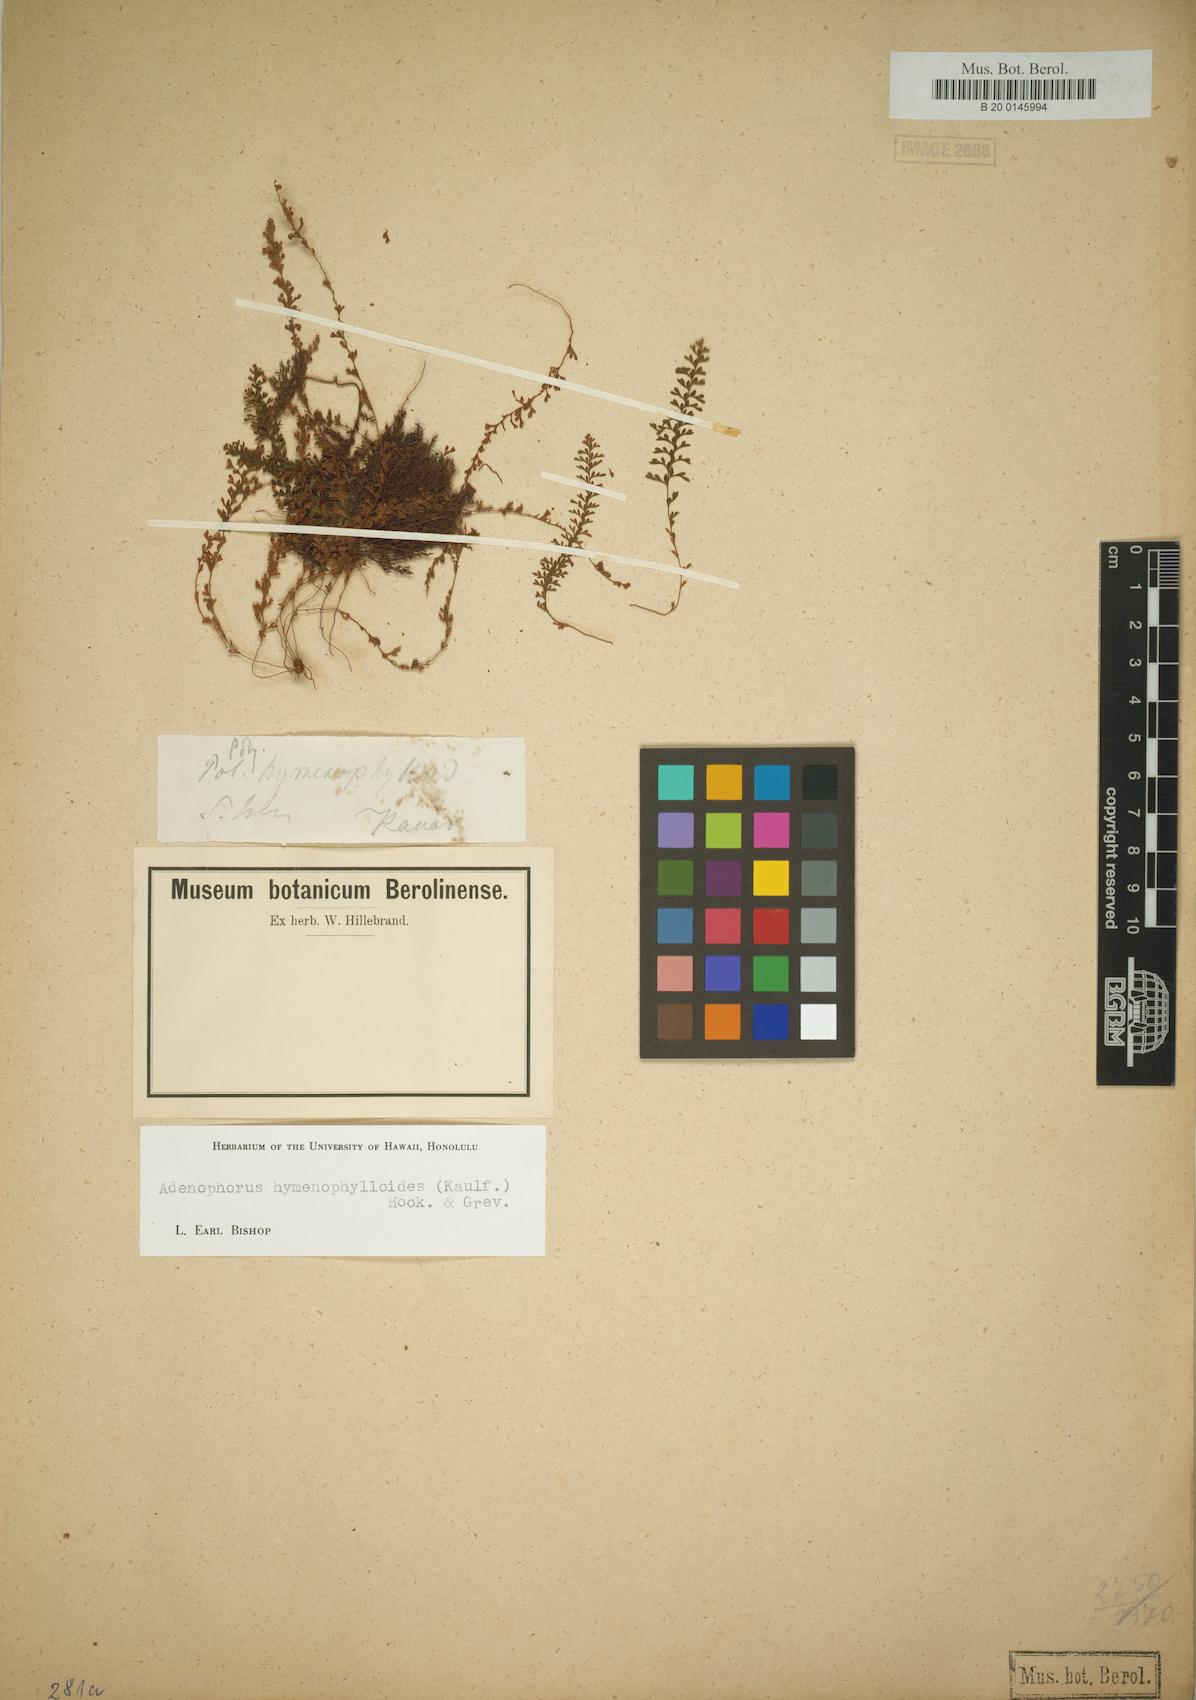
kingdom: Plantae
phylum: Tracheophyta
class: Polypodiopsida
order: Polypodiales
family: Polypodiaceae
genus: Adenophorus
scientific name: Adenophorus hymenophylloides
